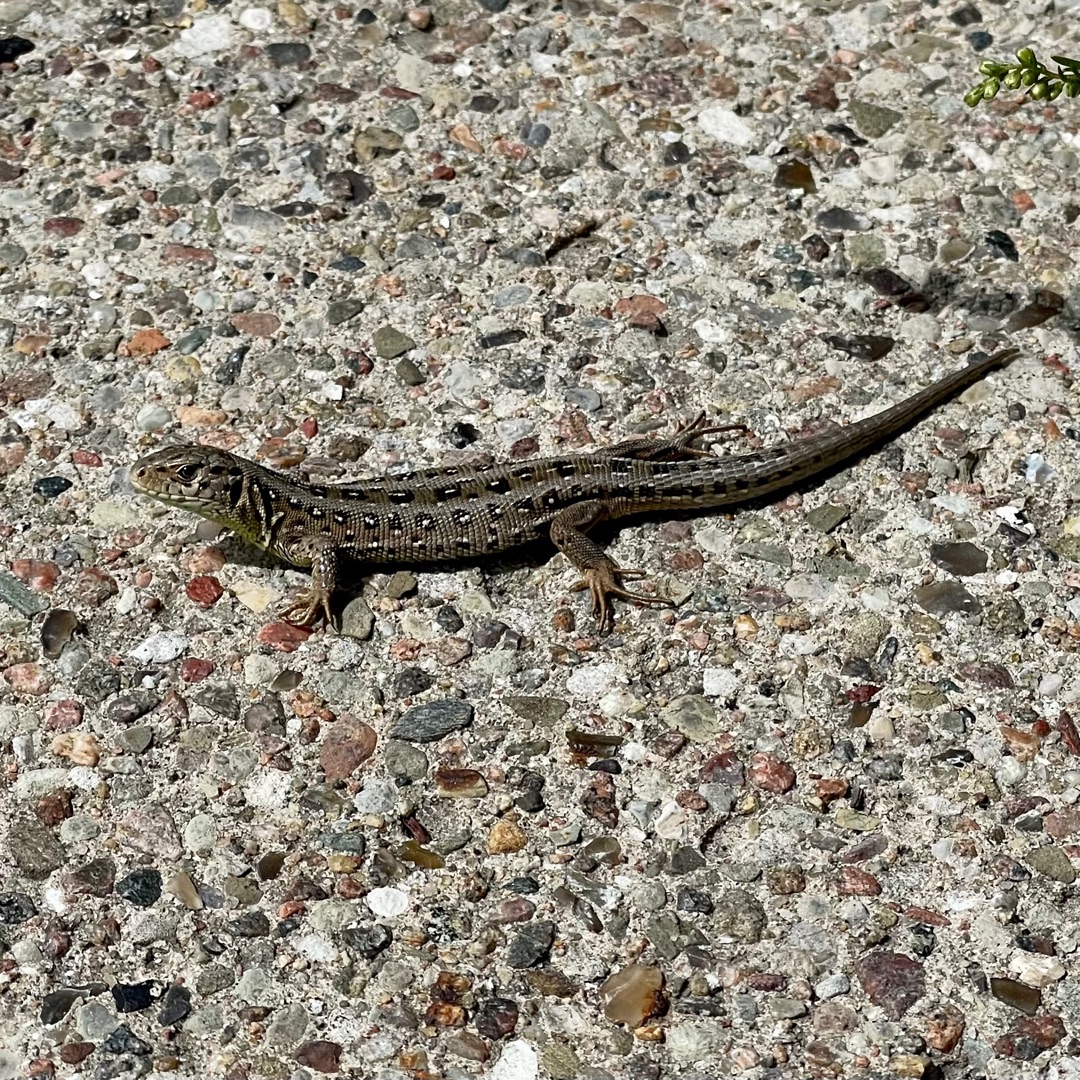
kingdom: Animalia
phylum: Chordata
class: Squamata
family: Lacertidae
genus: Lacerta
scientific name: Lacerta agilis
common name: Markfirben
